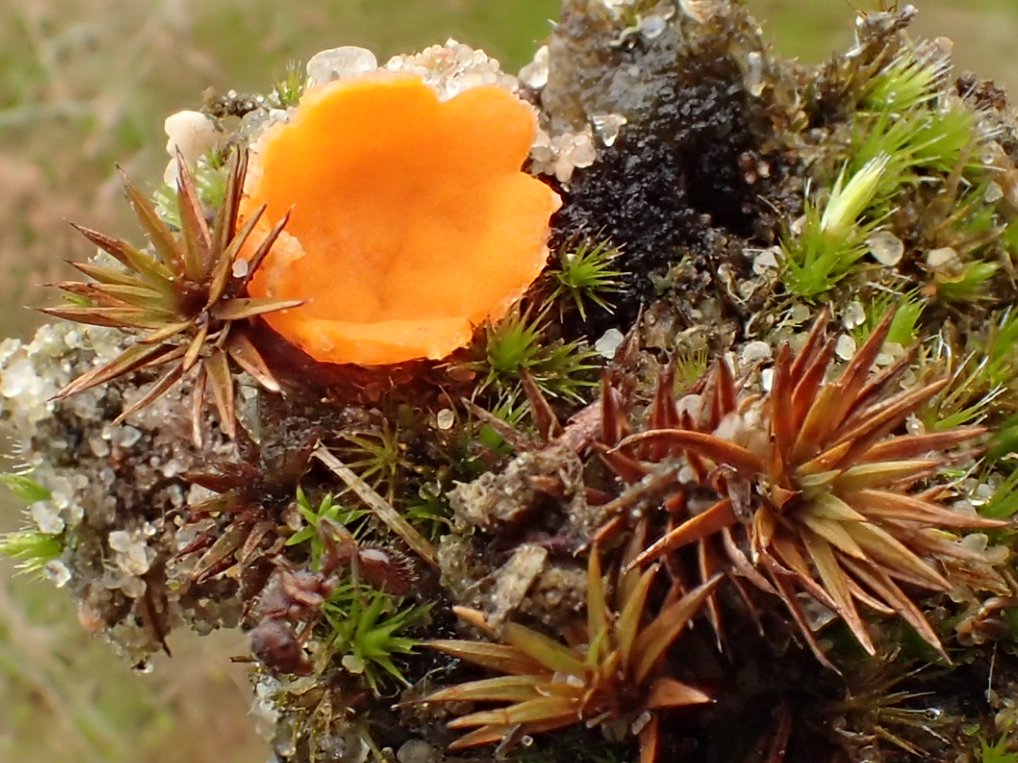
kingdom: Fungi
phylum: Ascomycota
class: Pezizomycetes
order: Pezizales
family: Pyronemataceae
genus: Neottiella
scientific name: Neottiella rutilans
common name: jomfruhår-mosbæger
